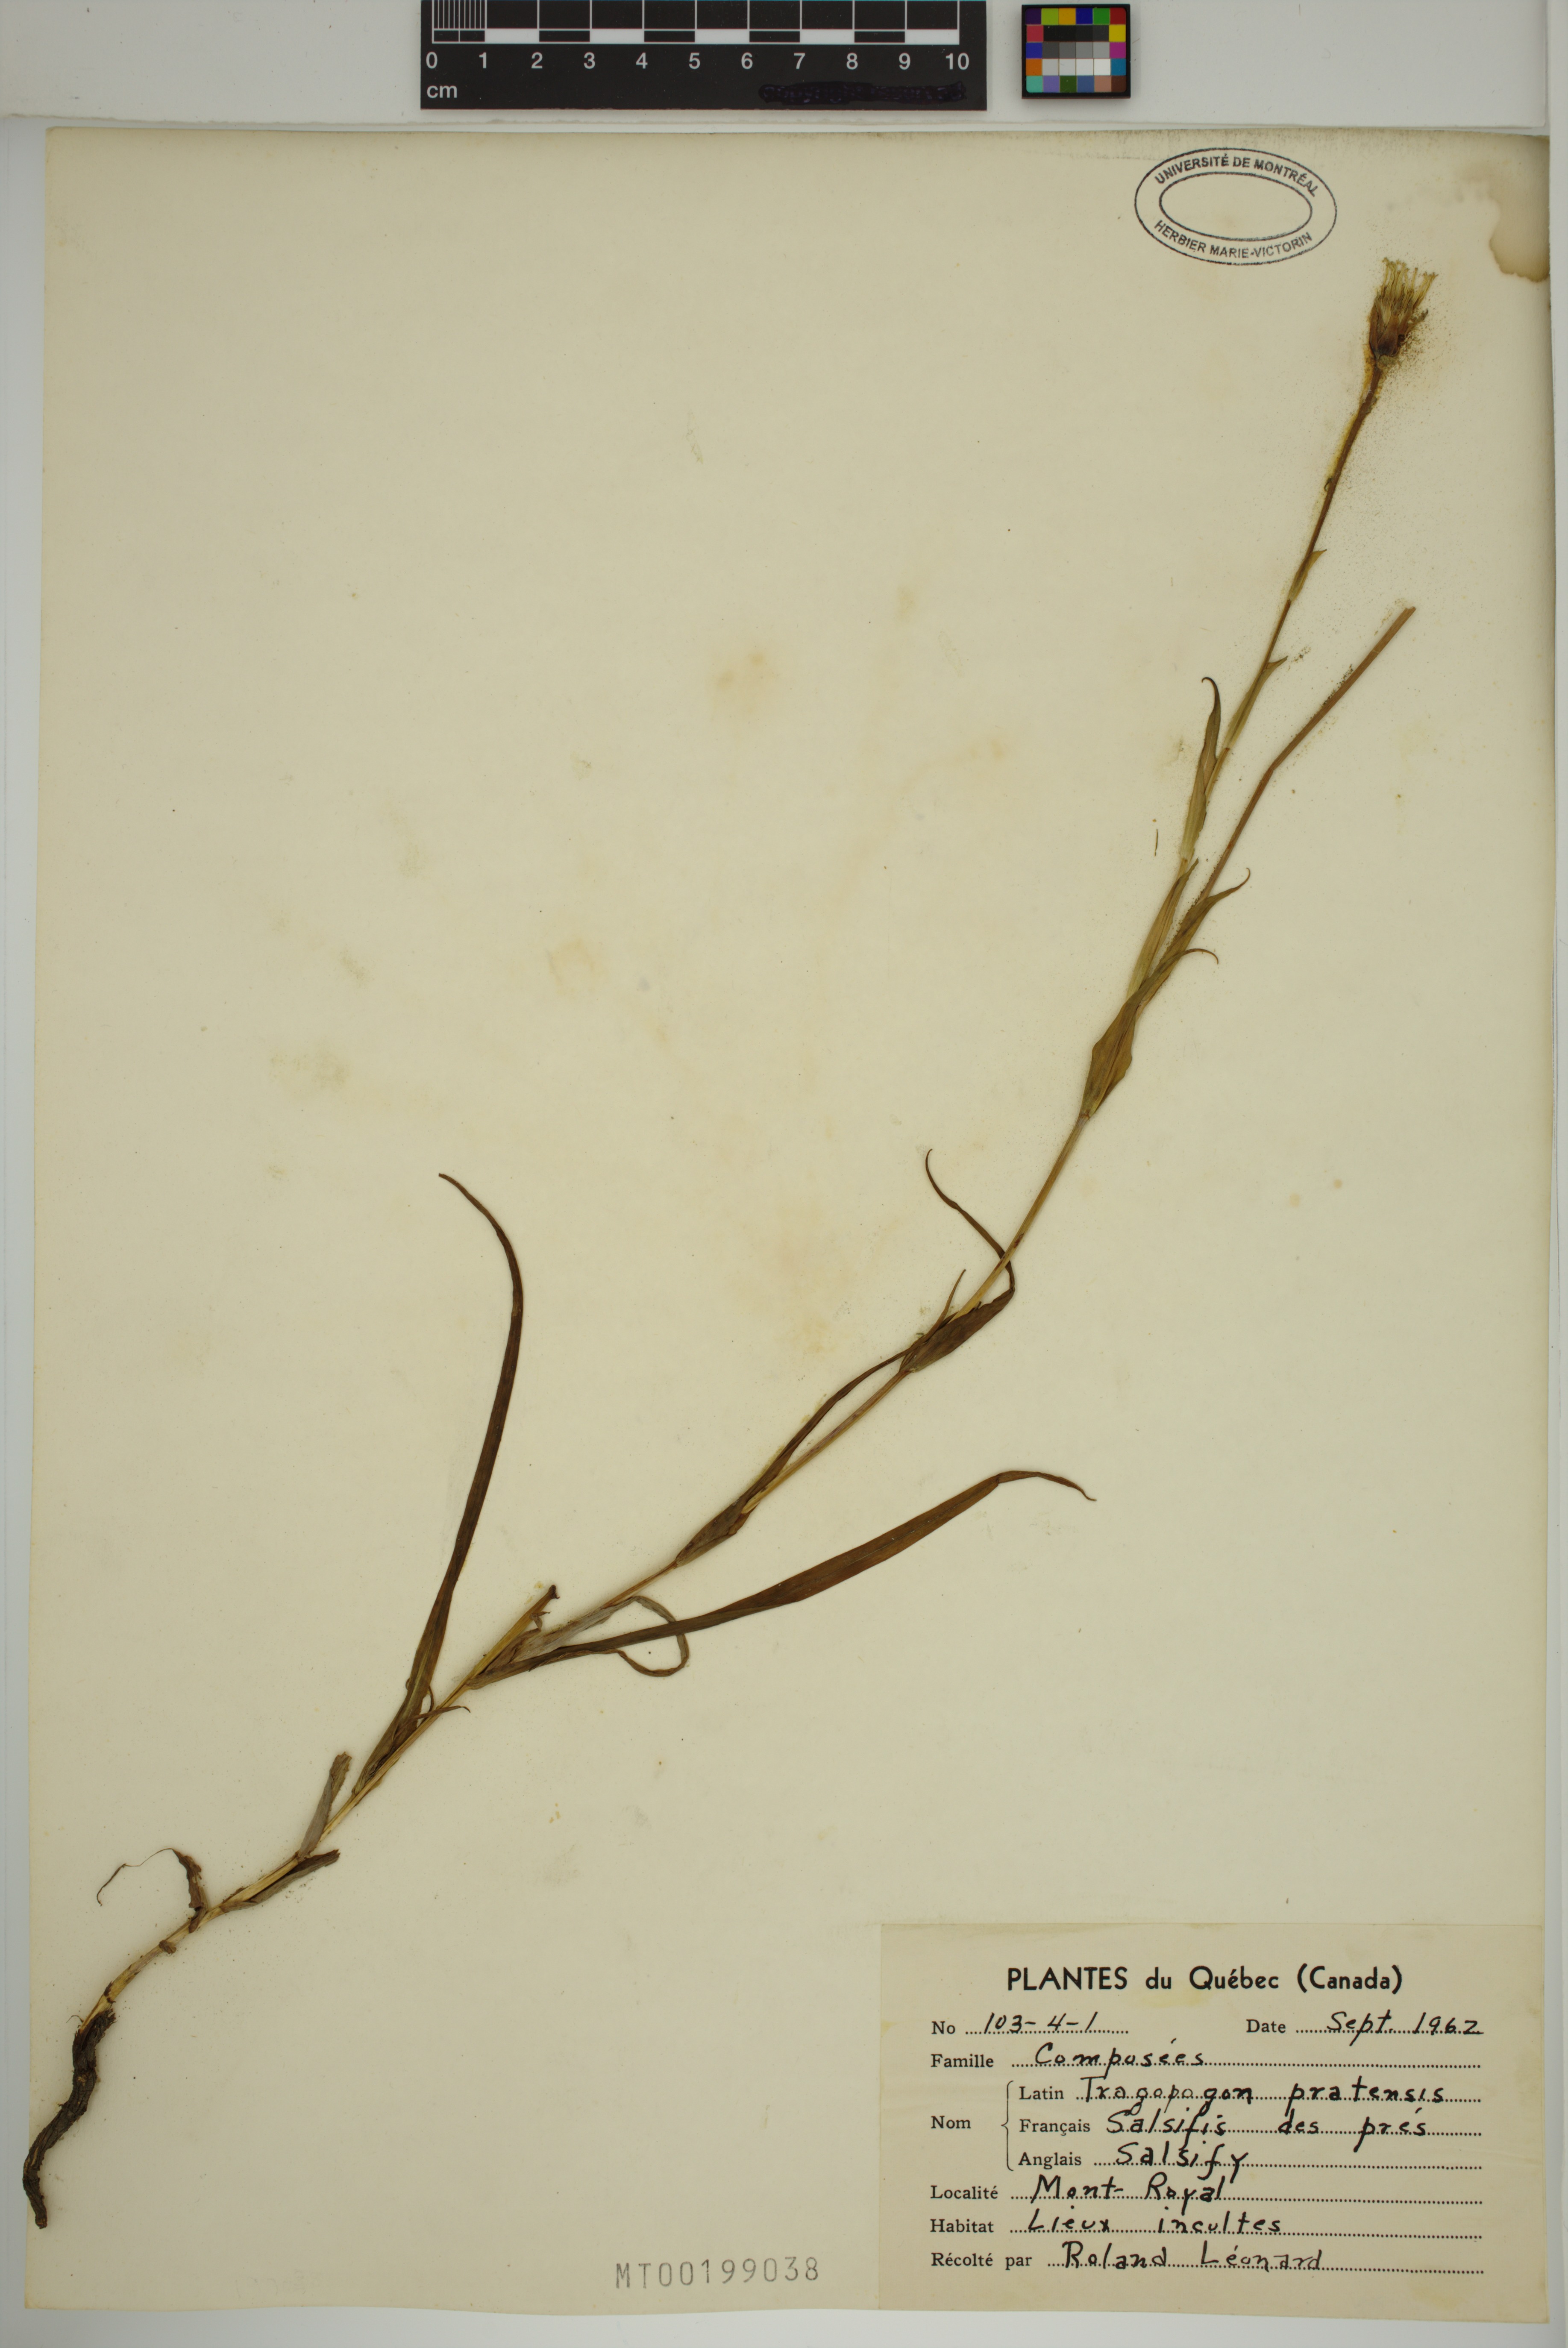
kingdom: Plantae
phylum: Tracheophyta
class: Magnoliopsida
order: Asterales
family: Asteraceae
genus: Tragopogon
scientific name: Tragopogon pratensis
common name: Goat's-beard
